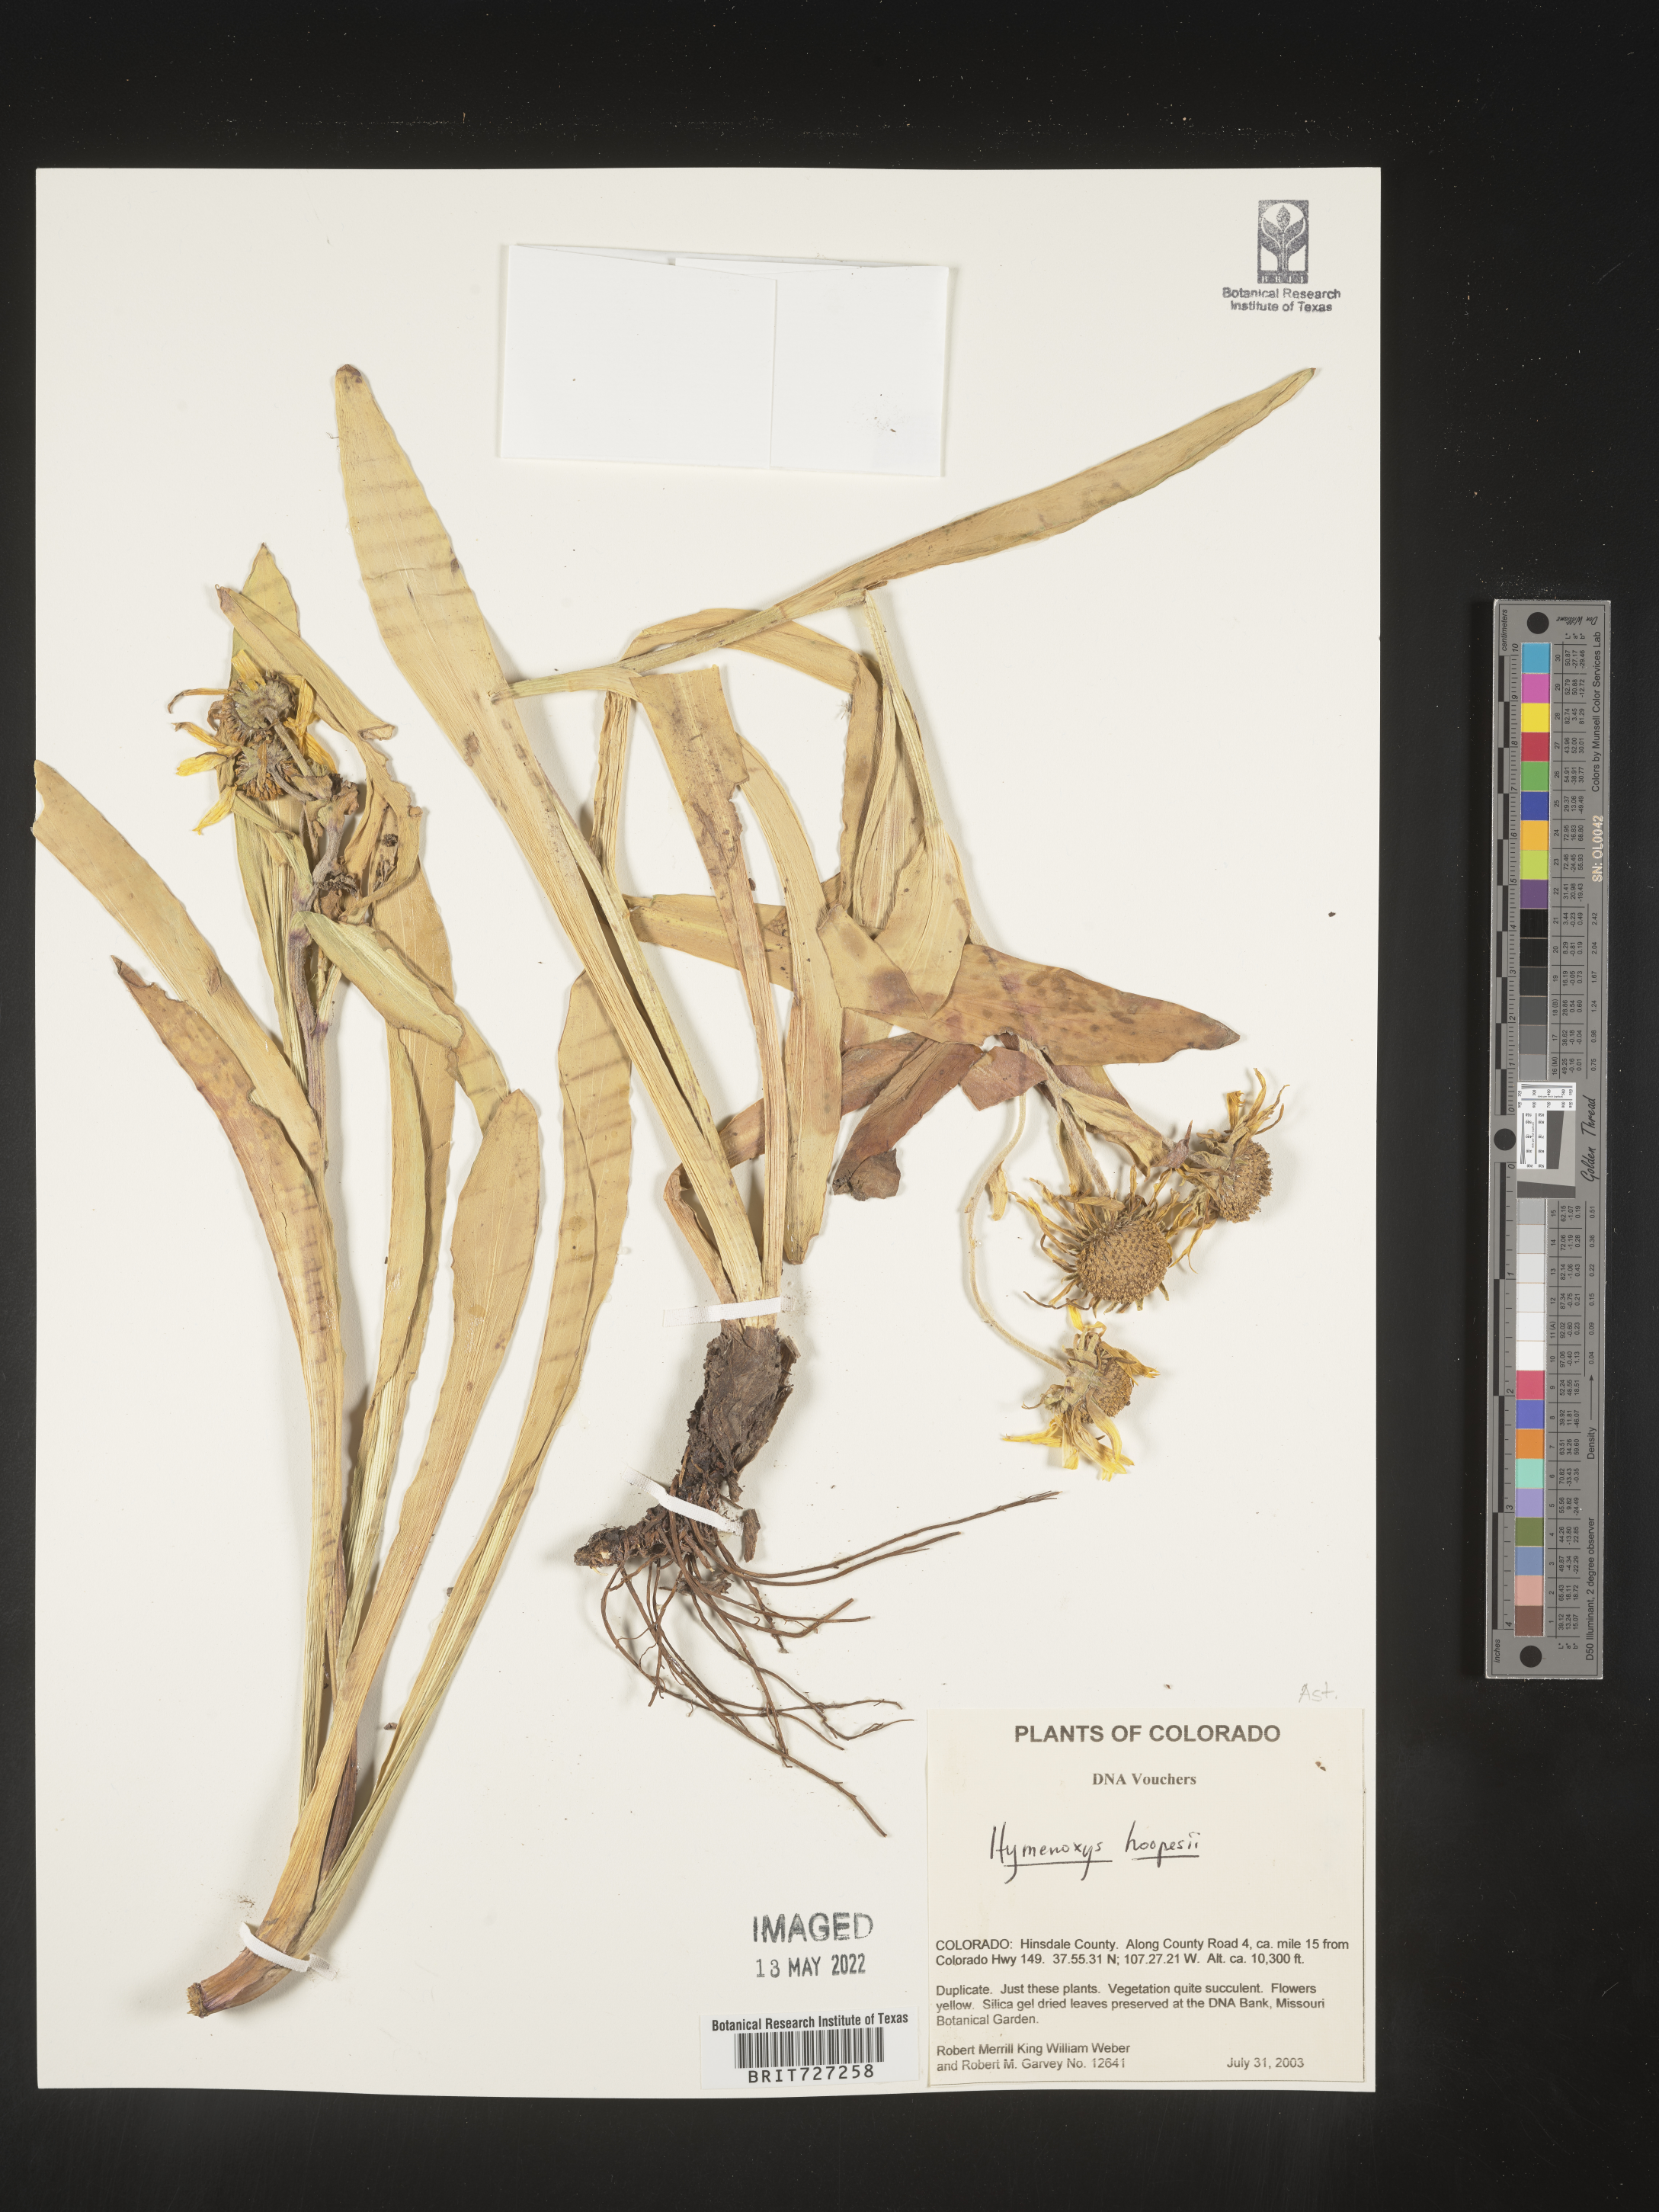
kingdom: Plantae
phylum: Tracheophyta
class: Magnoliopsida
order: Asterales
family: Asteraceae
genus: Hymenoxys
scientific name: Hymenoxys hoopesii
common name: Orange-sneezeweed
